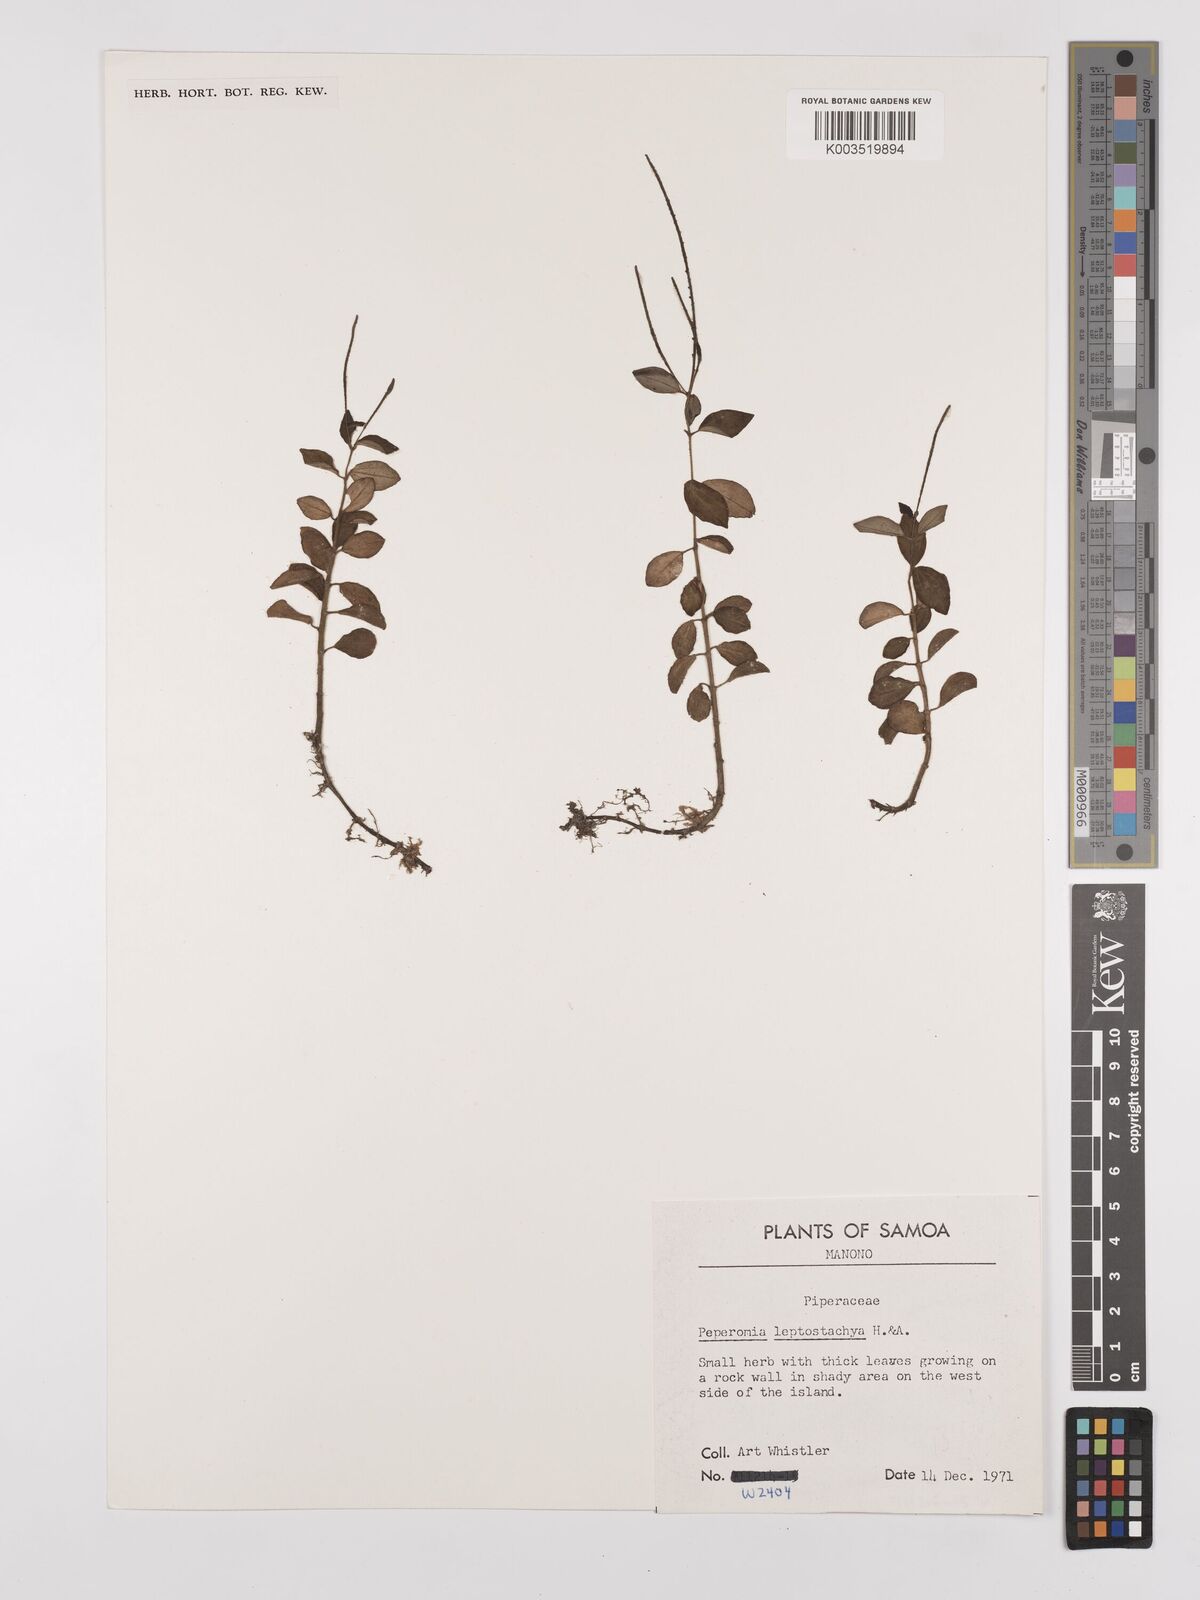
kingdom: Plantae
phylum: Tracheophyta
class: Magnoliopsida
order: Piperales
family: Piperaceae
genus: Peperomia
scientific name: Peperomia leptostachya
